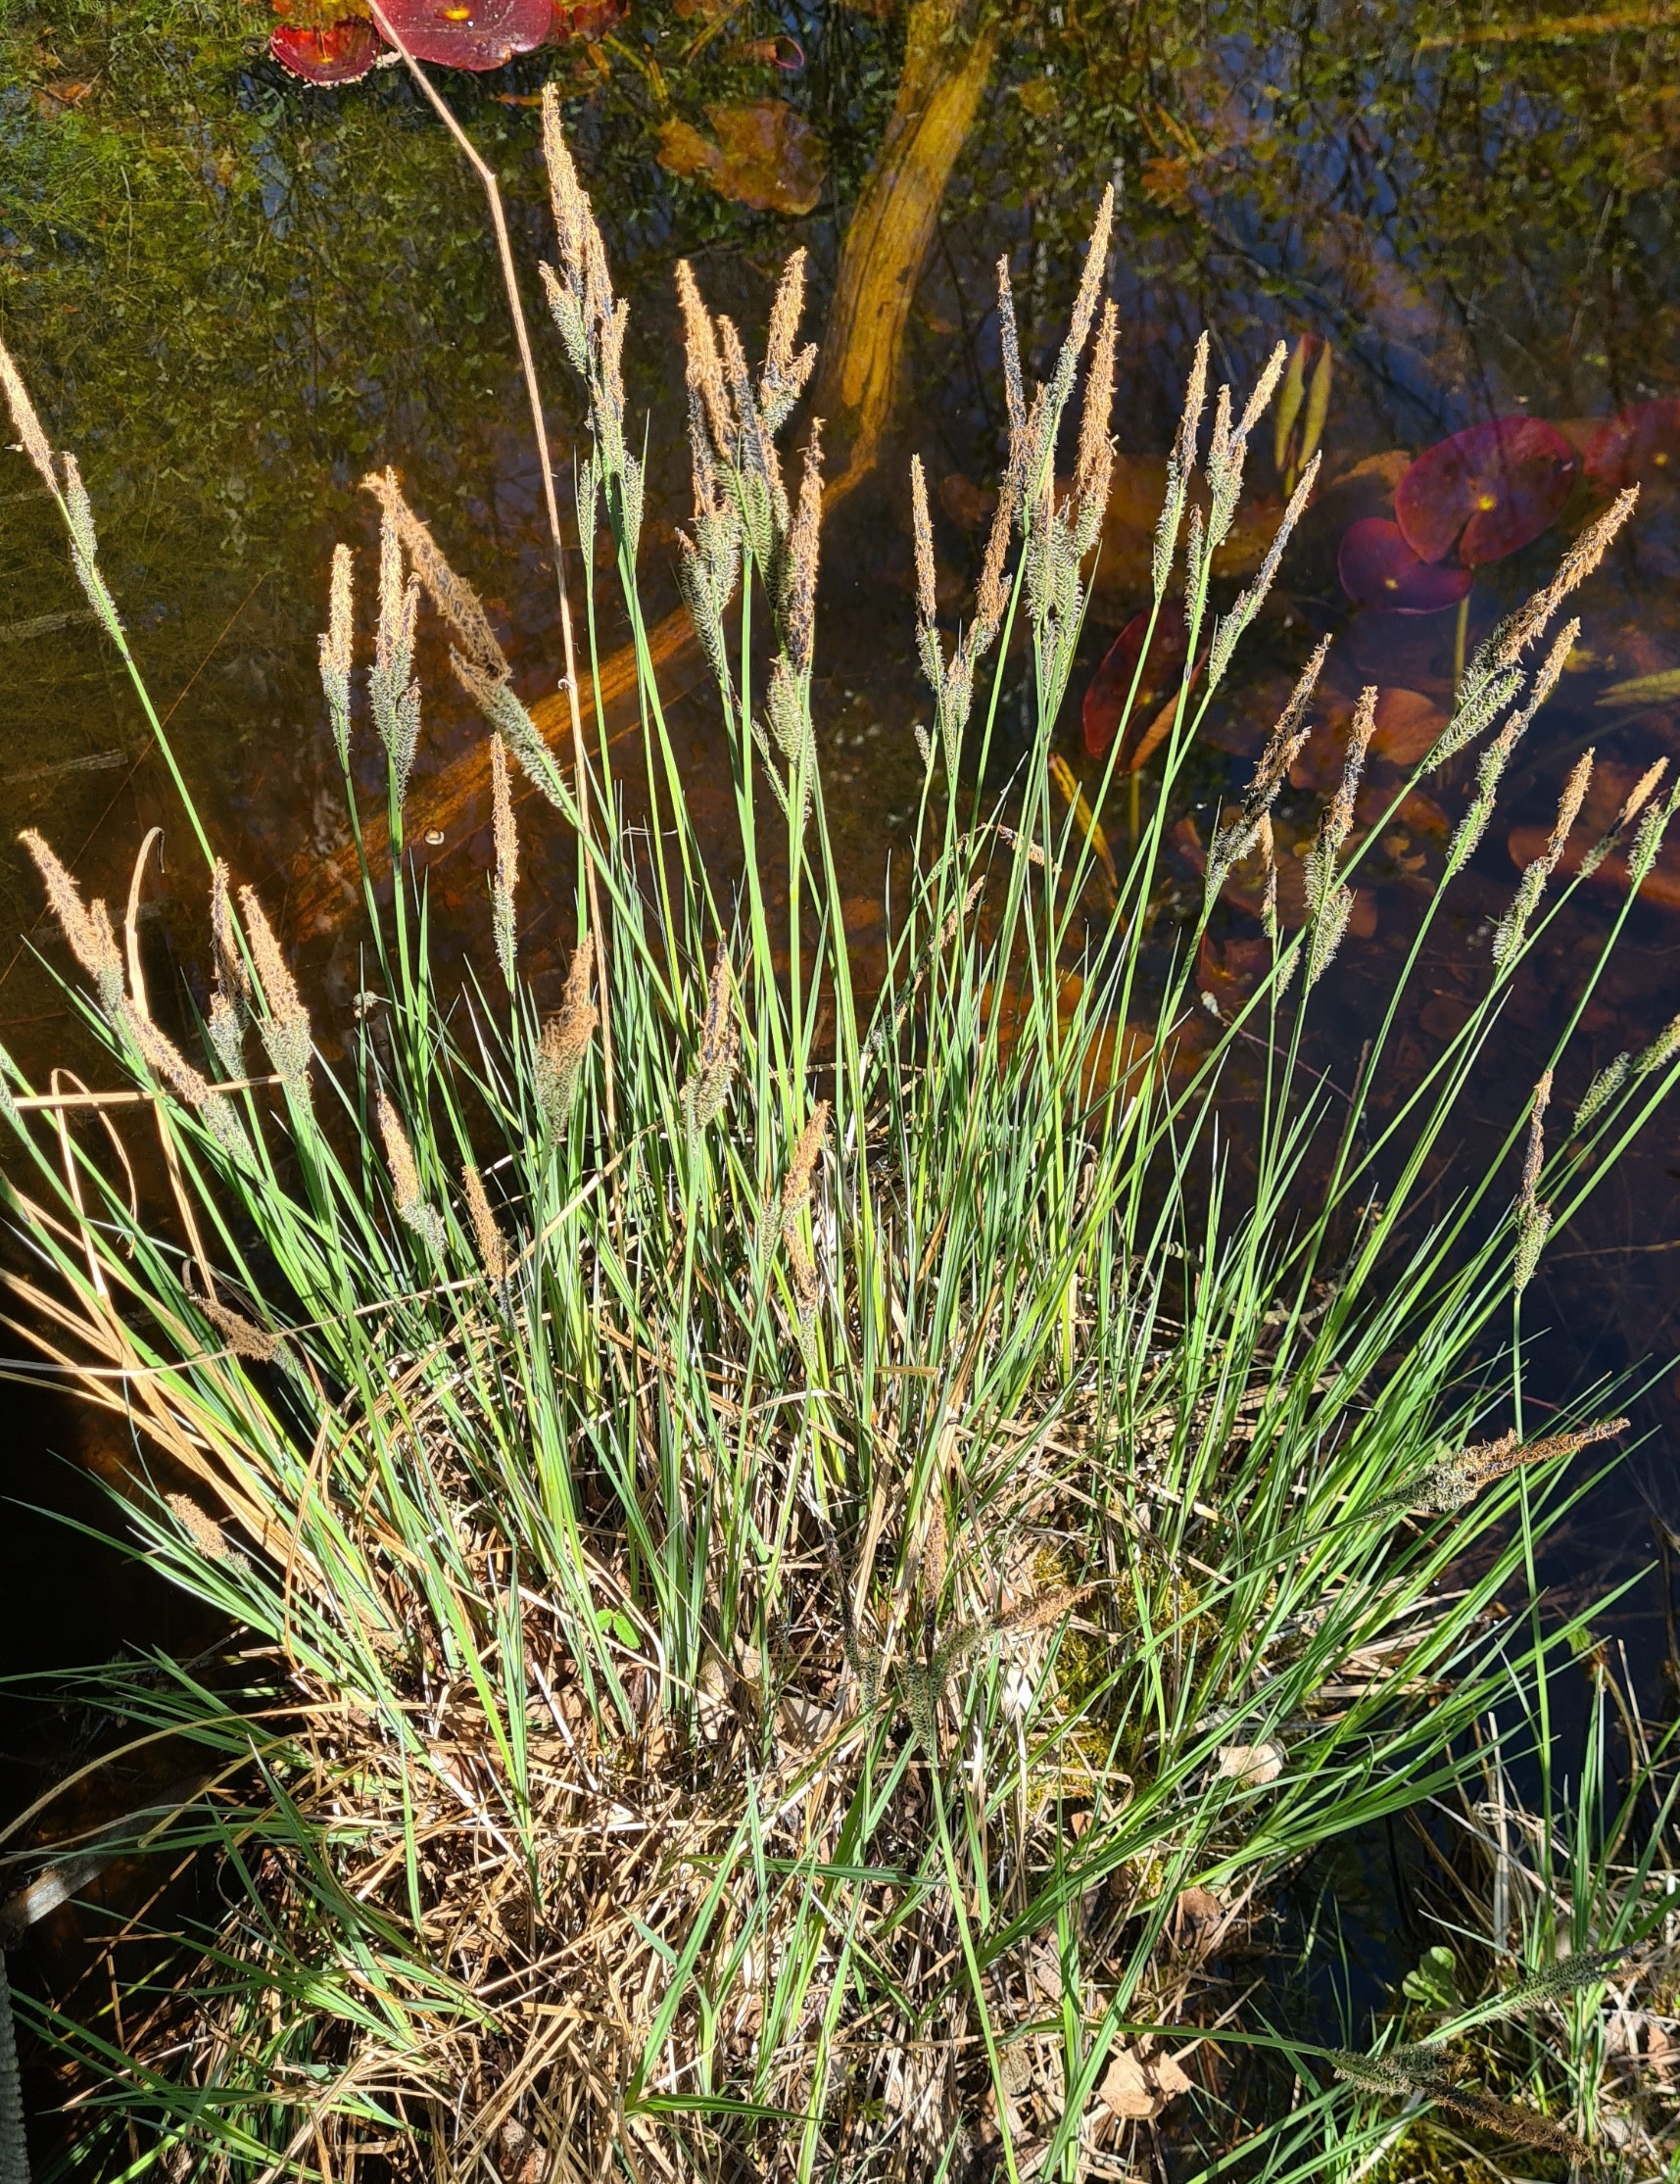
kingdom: Plantae
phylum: Tracheophyta
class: Liliopsida
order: Poales
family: Cyperaceae
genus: Carex
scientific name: Carex elata
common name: Stiv star
